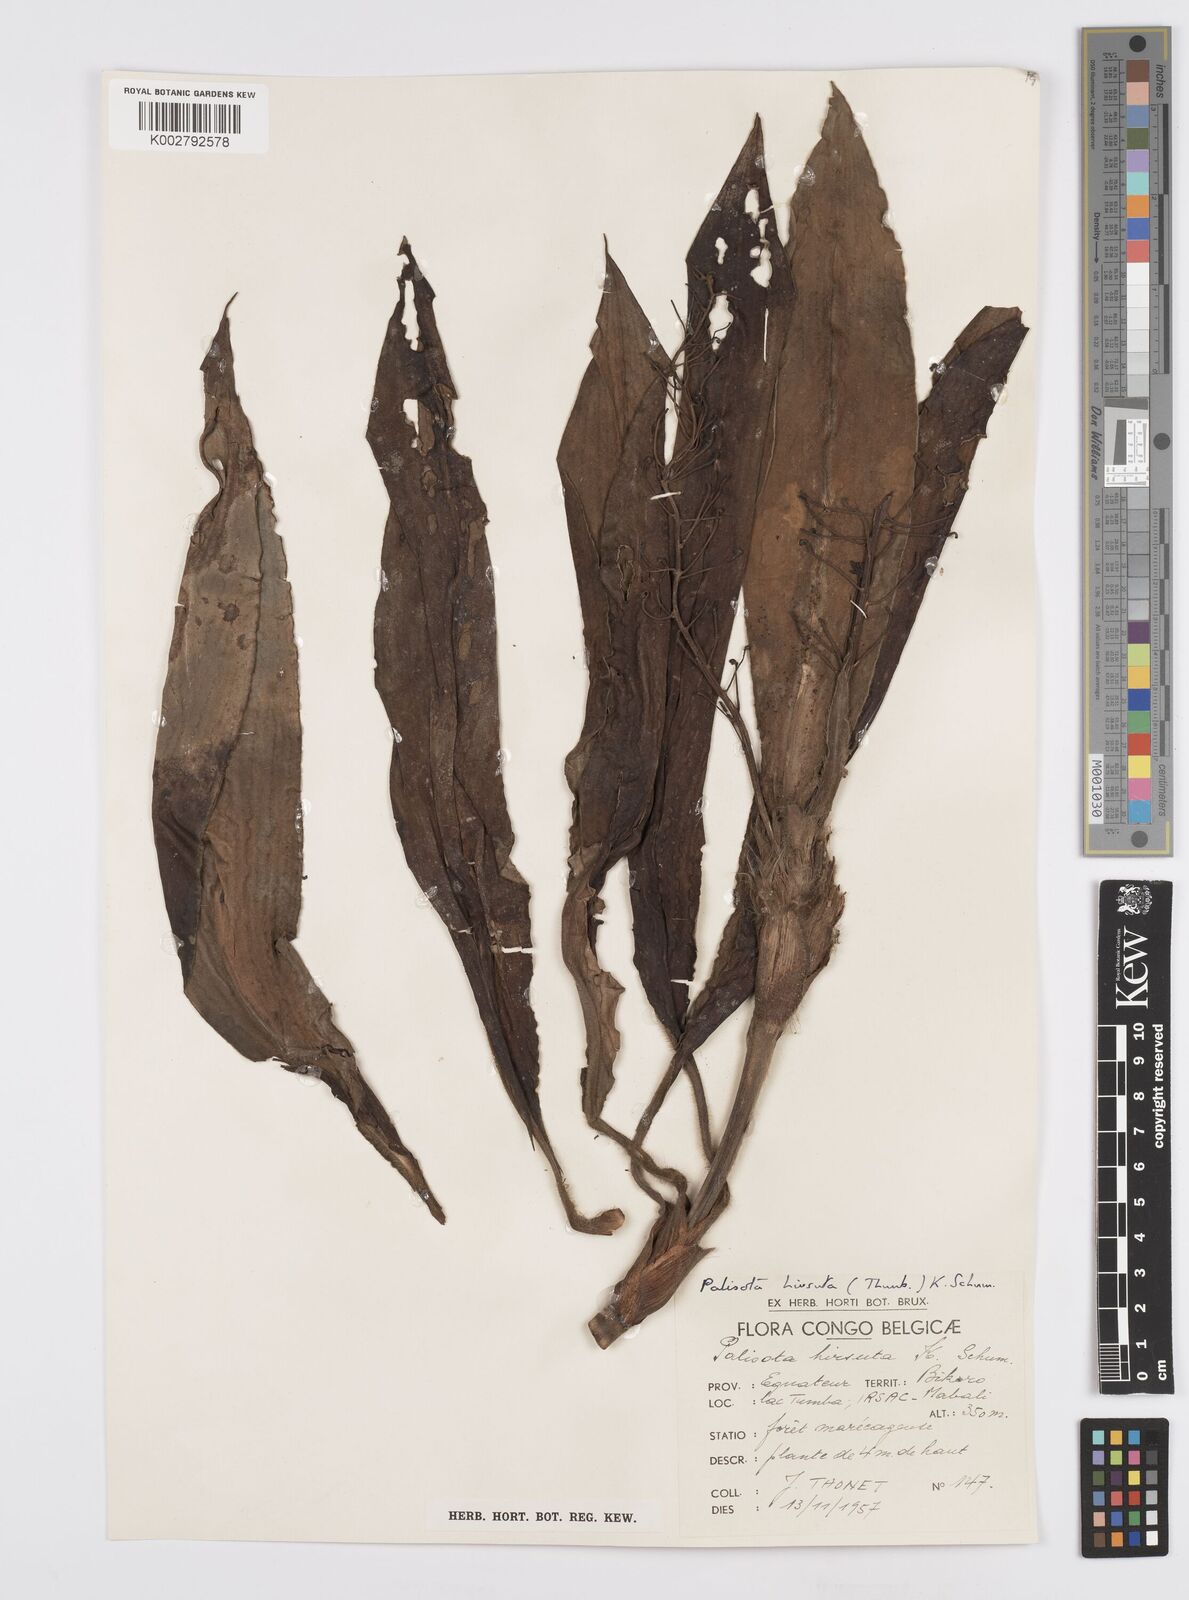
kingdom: Plantae
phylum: Tracheophyta
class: Liliopsida
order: Commelinales
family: Commelinaceae
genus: Palisota
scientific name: Palisota hirsuta
